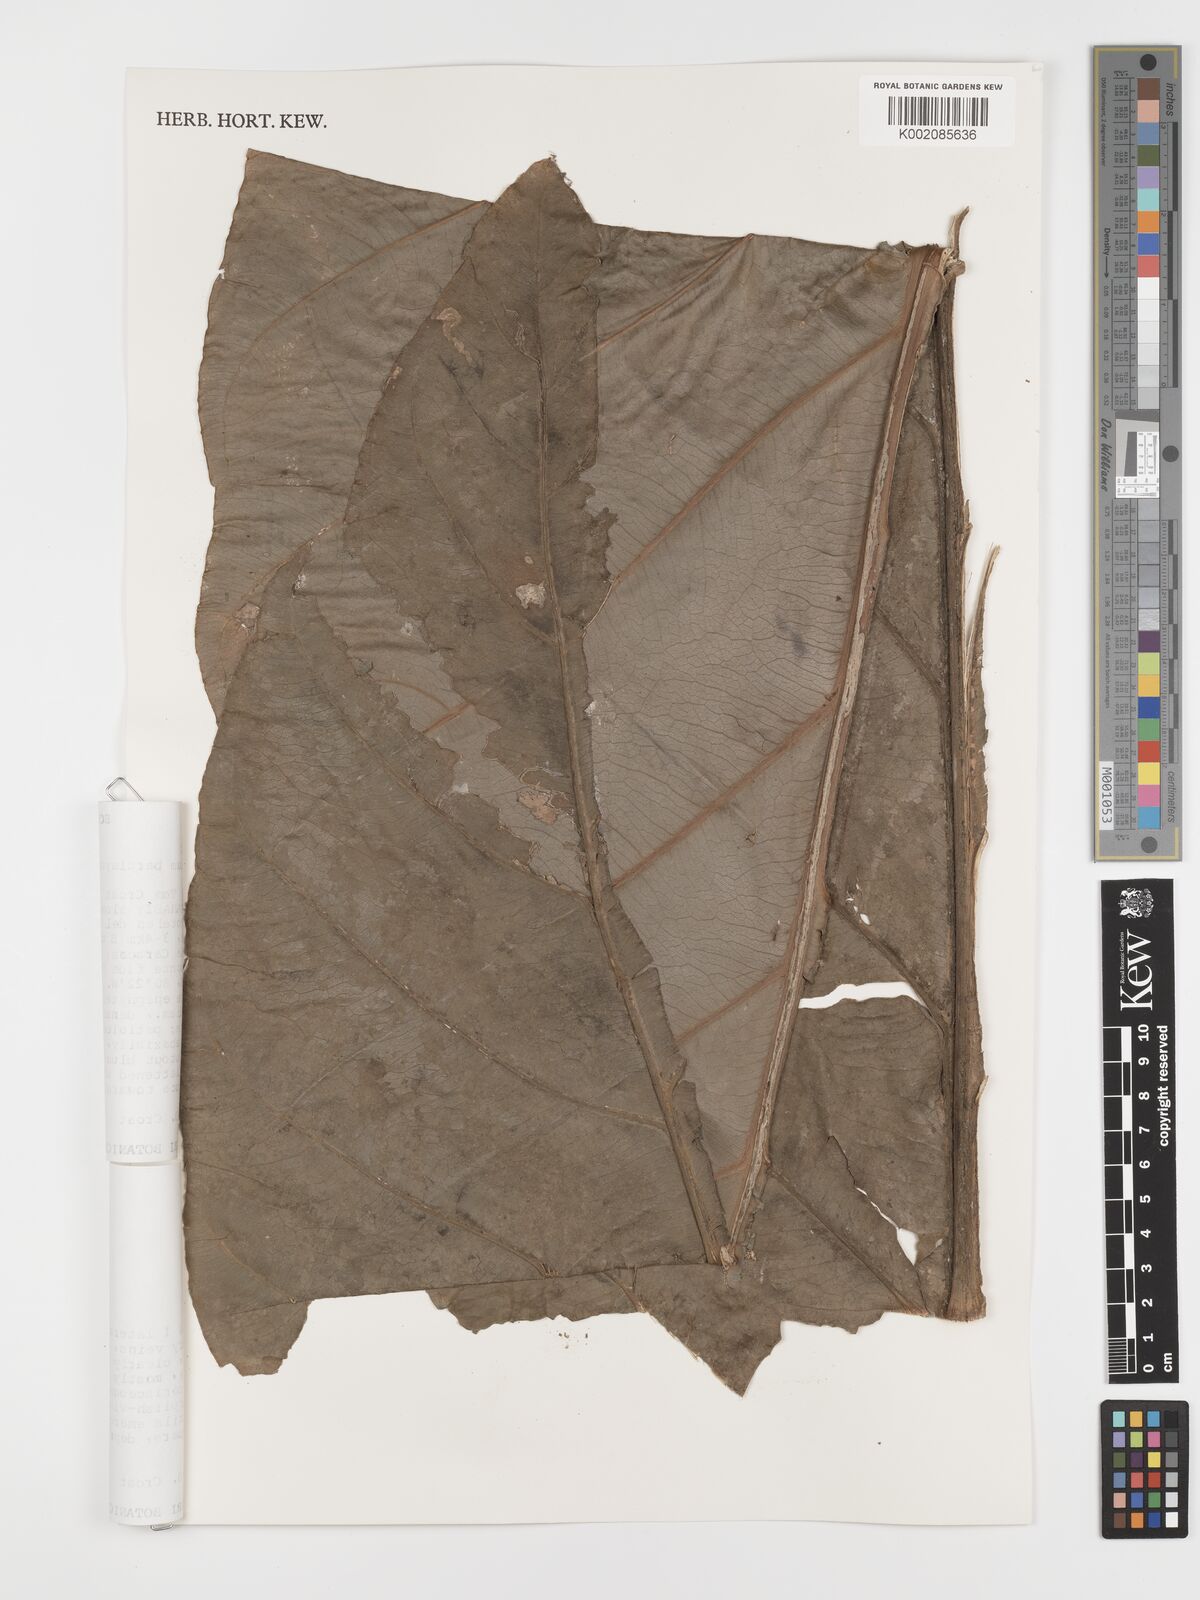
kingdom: Plantae
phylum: Tracheophyta
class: Liliopsida
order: Alismatales
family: Araceae
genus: Anthurium
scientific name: Anthurium balaoanum
